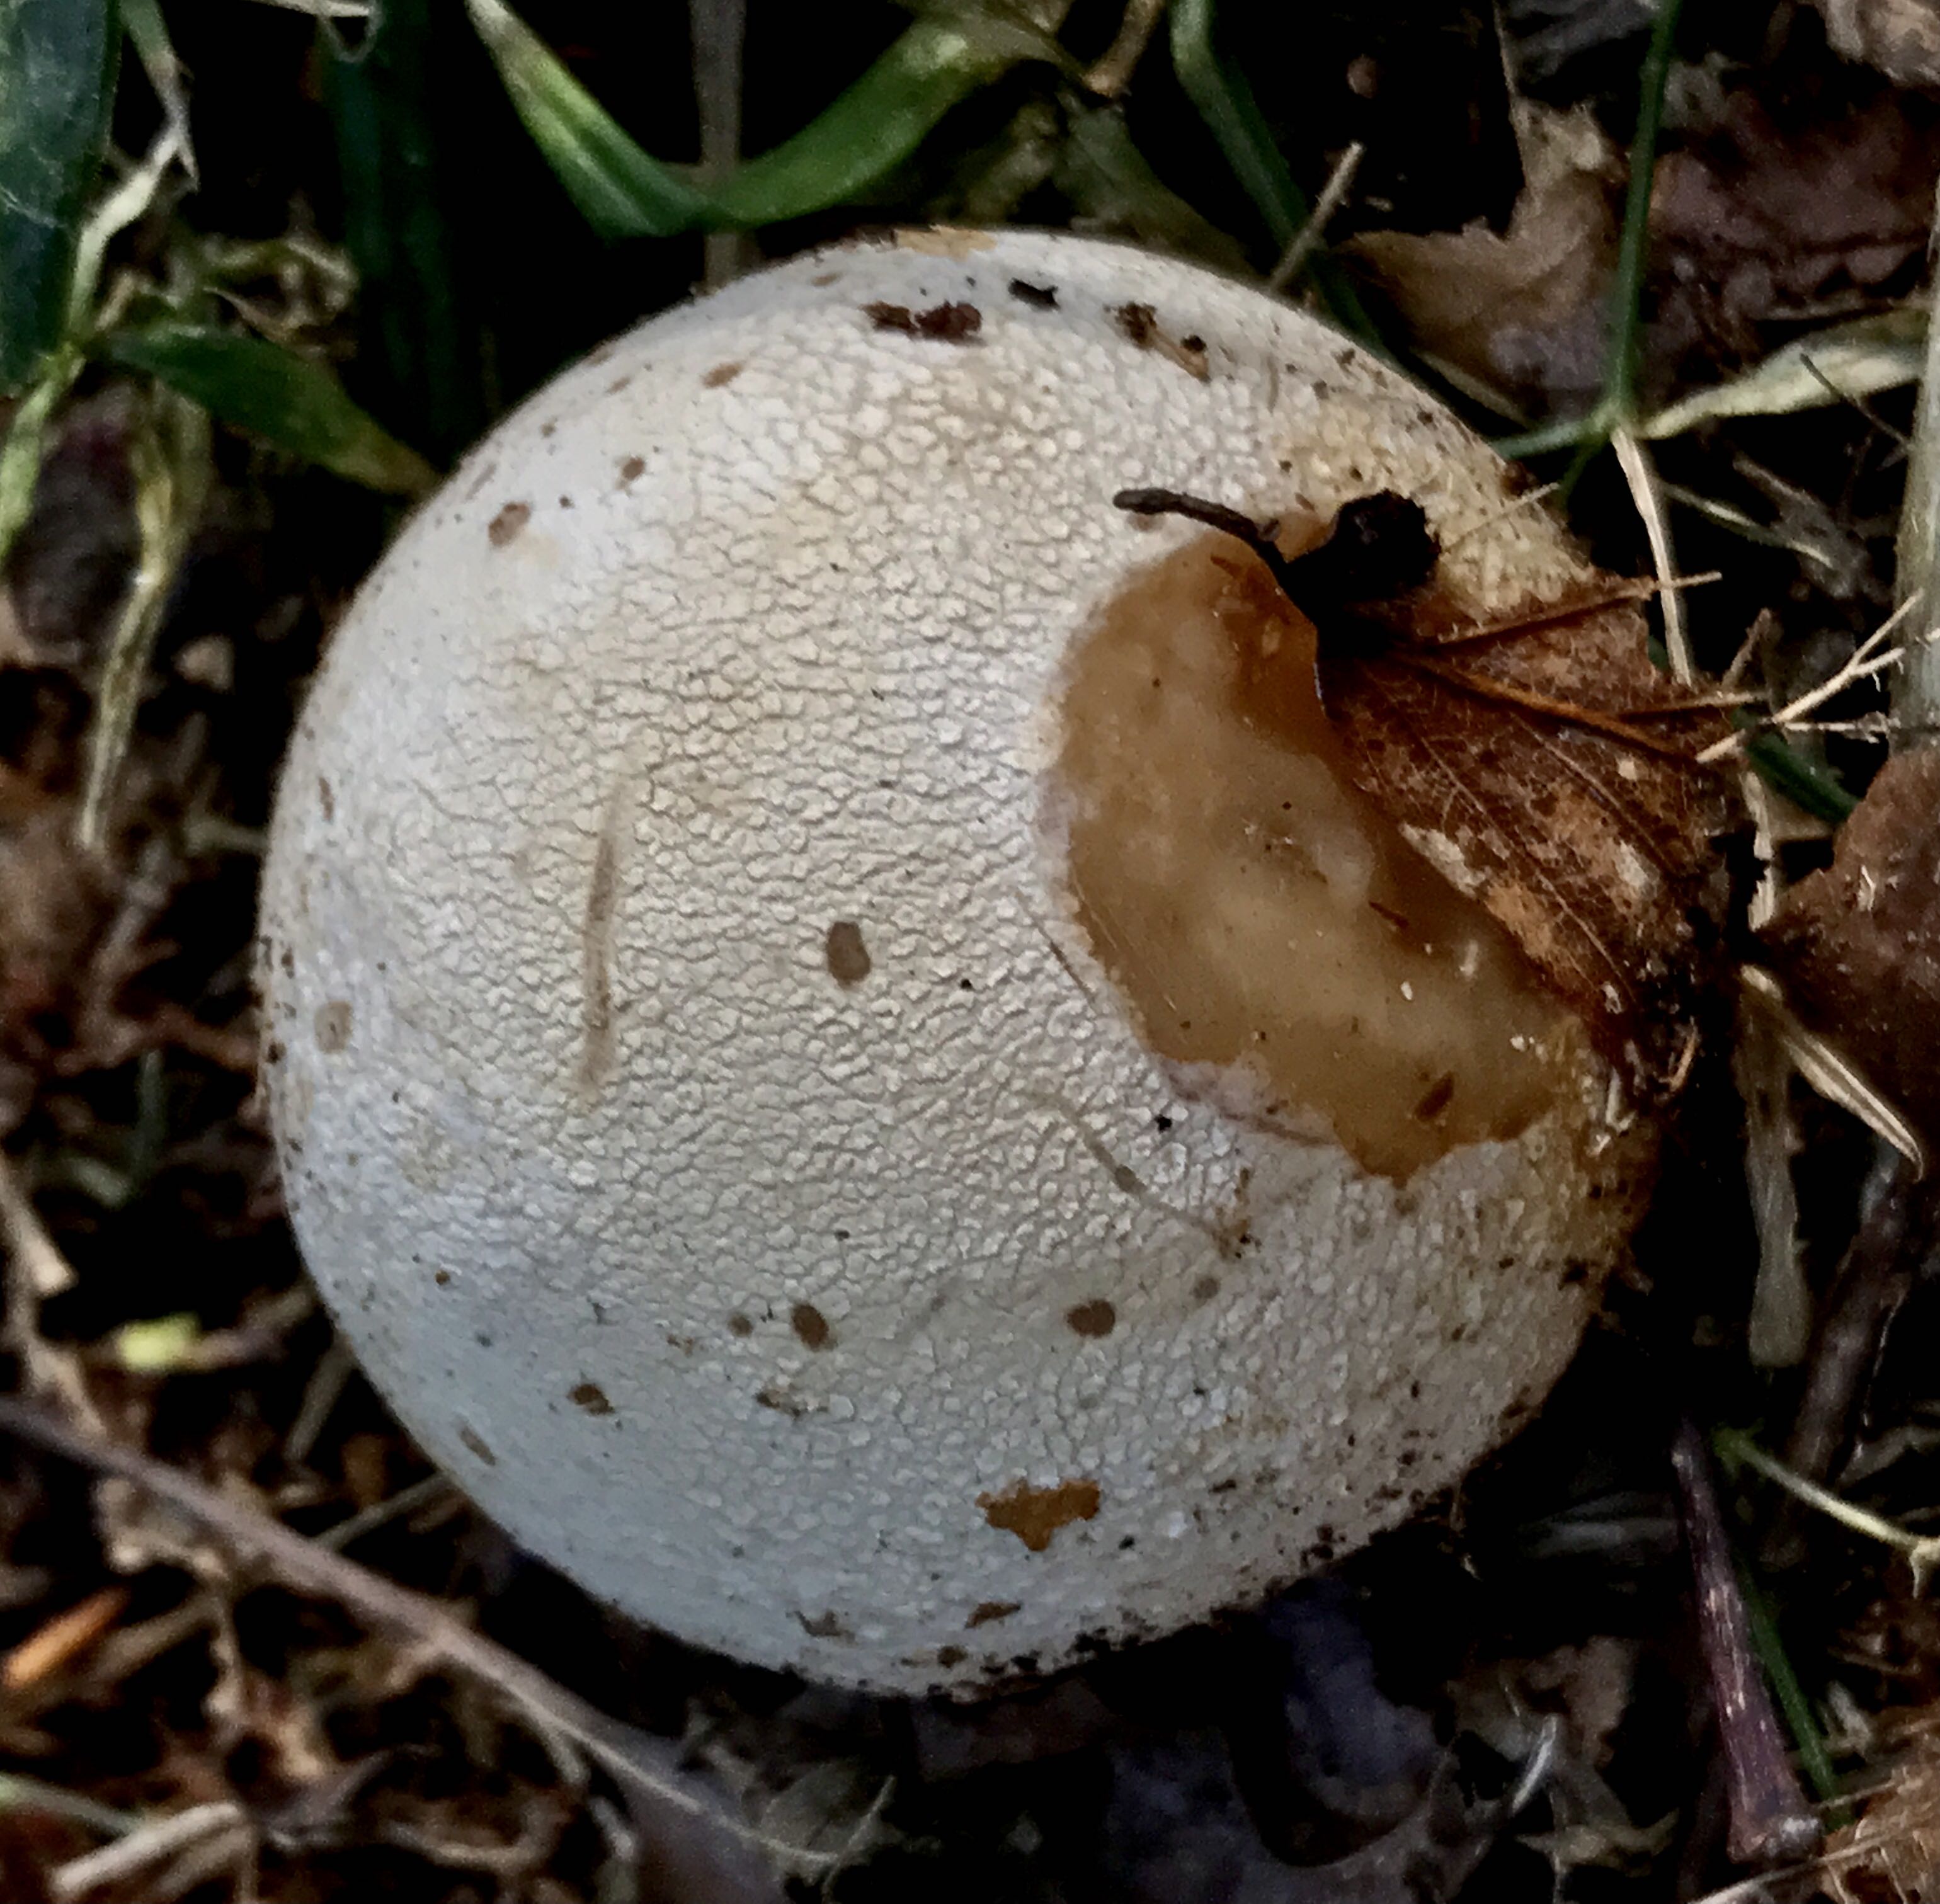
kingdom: Fungi
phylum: Basidiomycota
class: Agaricomycetes
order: Phallales
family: Phallaceae
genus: Phallus
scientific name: Phallus impudicus
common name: almindelig stinksvamp
